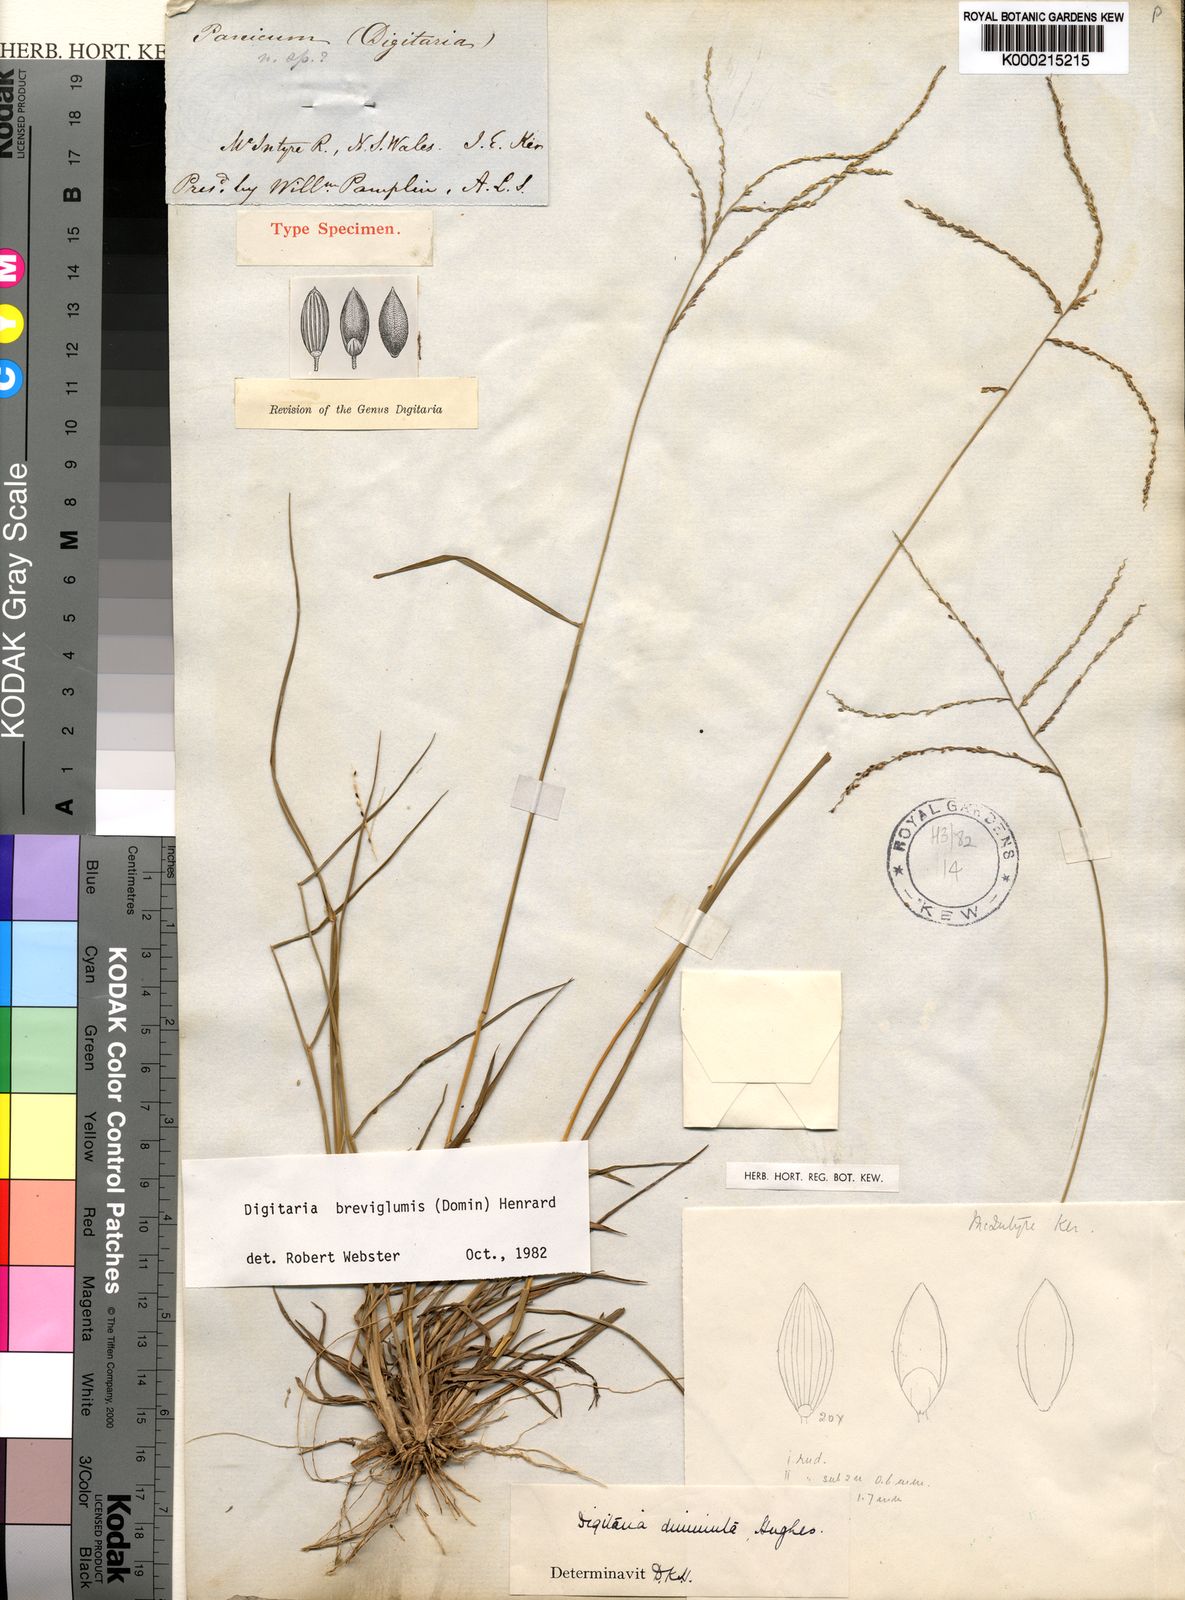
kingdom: Plantae
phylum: Tracheophyta
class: Liliopsida
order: Poales
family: Poaceae
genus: Digitaria
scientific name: Digitaria breviglumis
